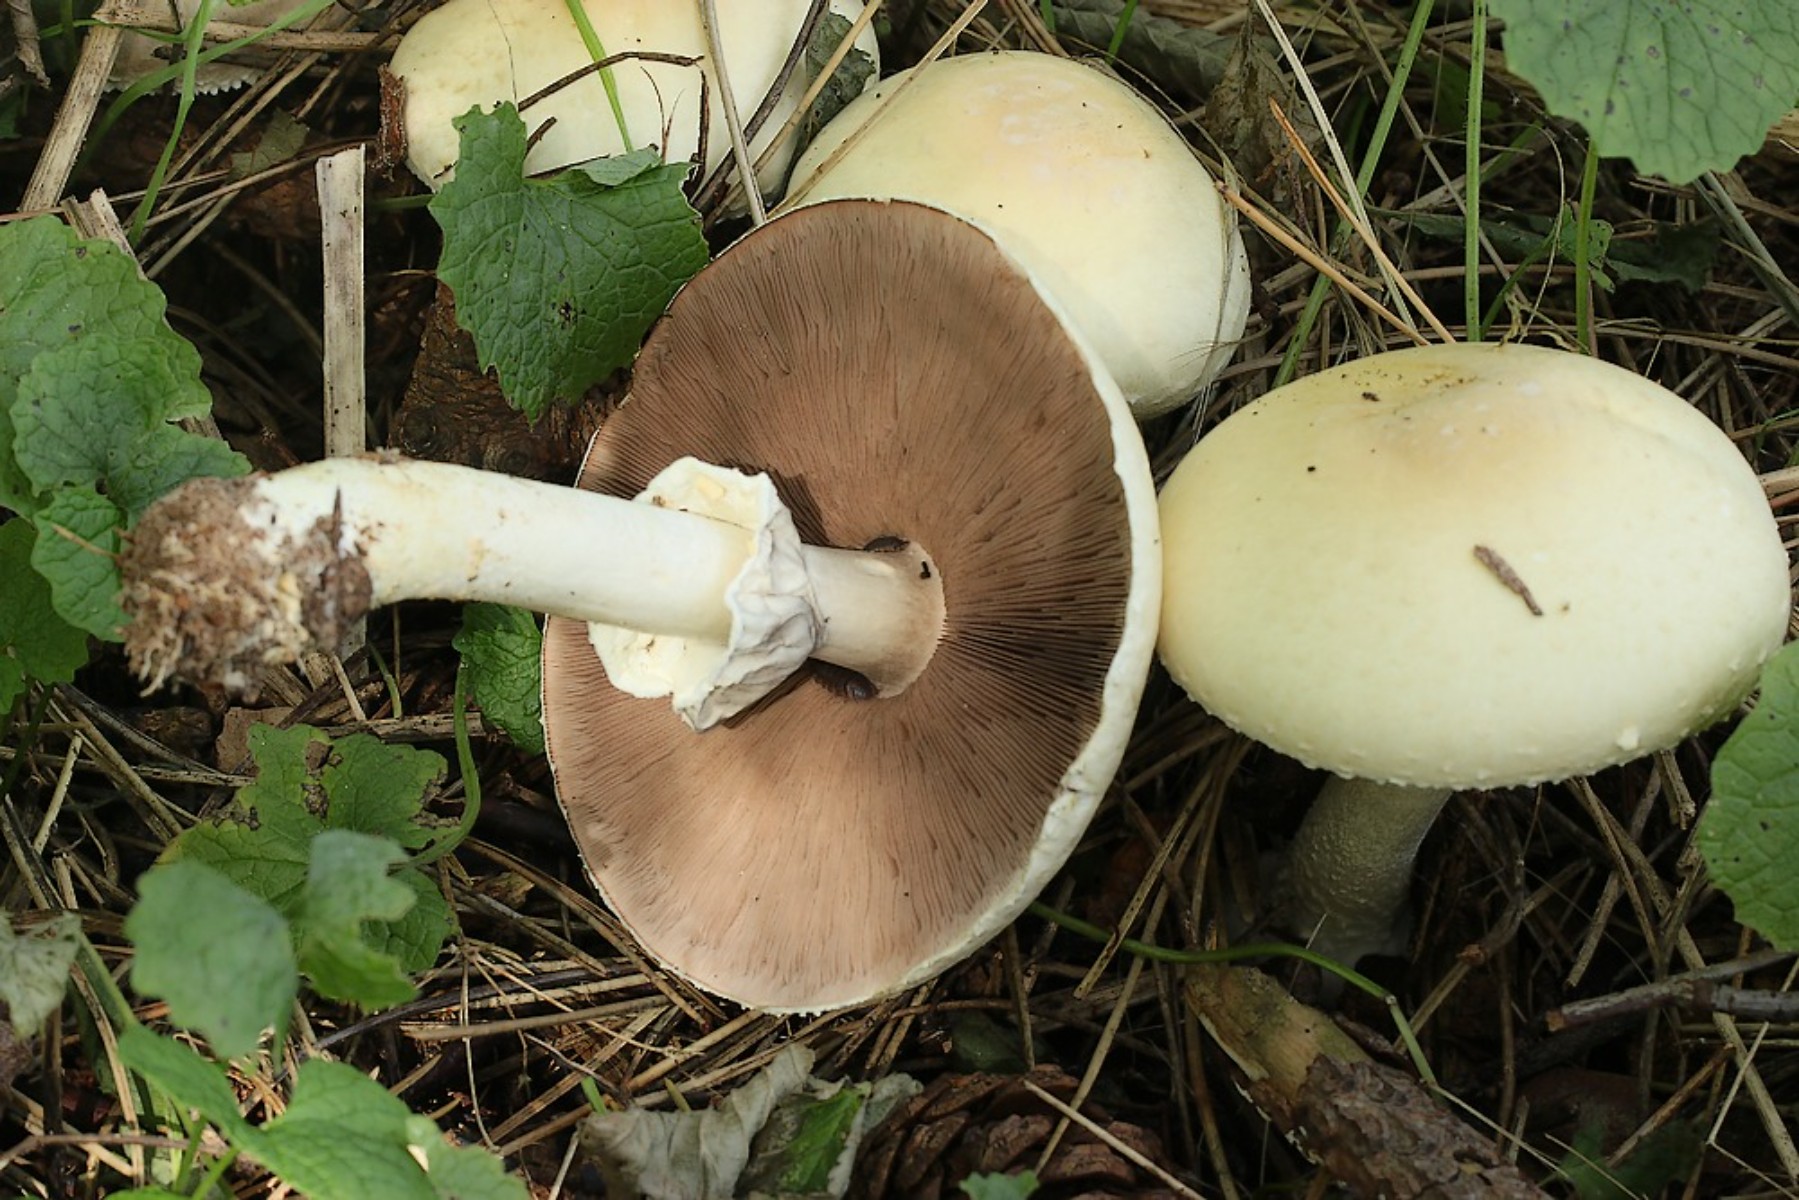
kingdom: Fungi
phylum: Basidiomycota
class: Agaricomycetes
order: Agaricales
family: Agaricaceae
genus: Agaricus
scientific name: Agaricus arvensis
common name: ager-champignon
